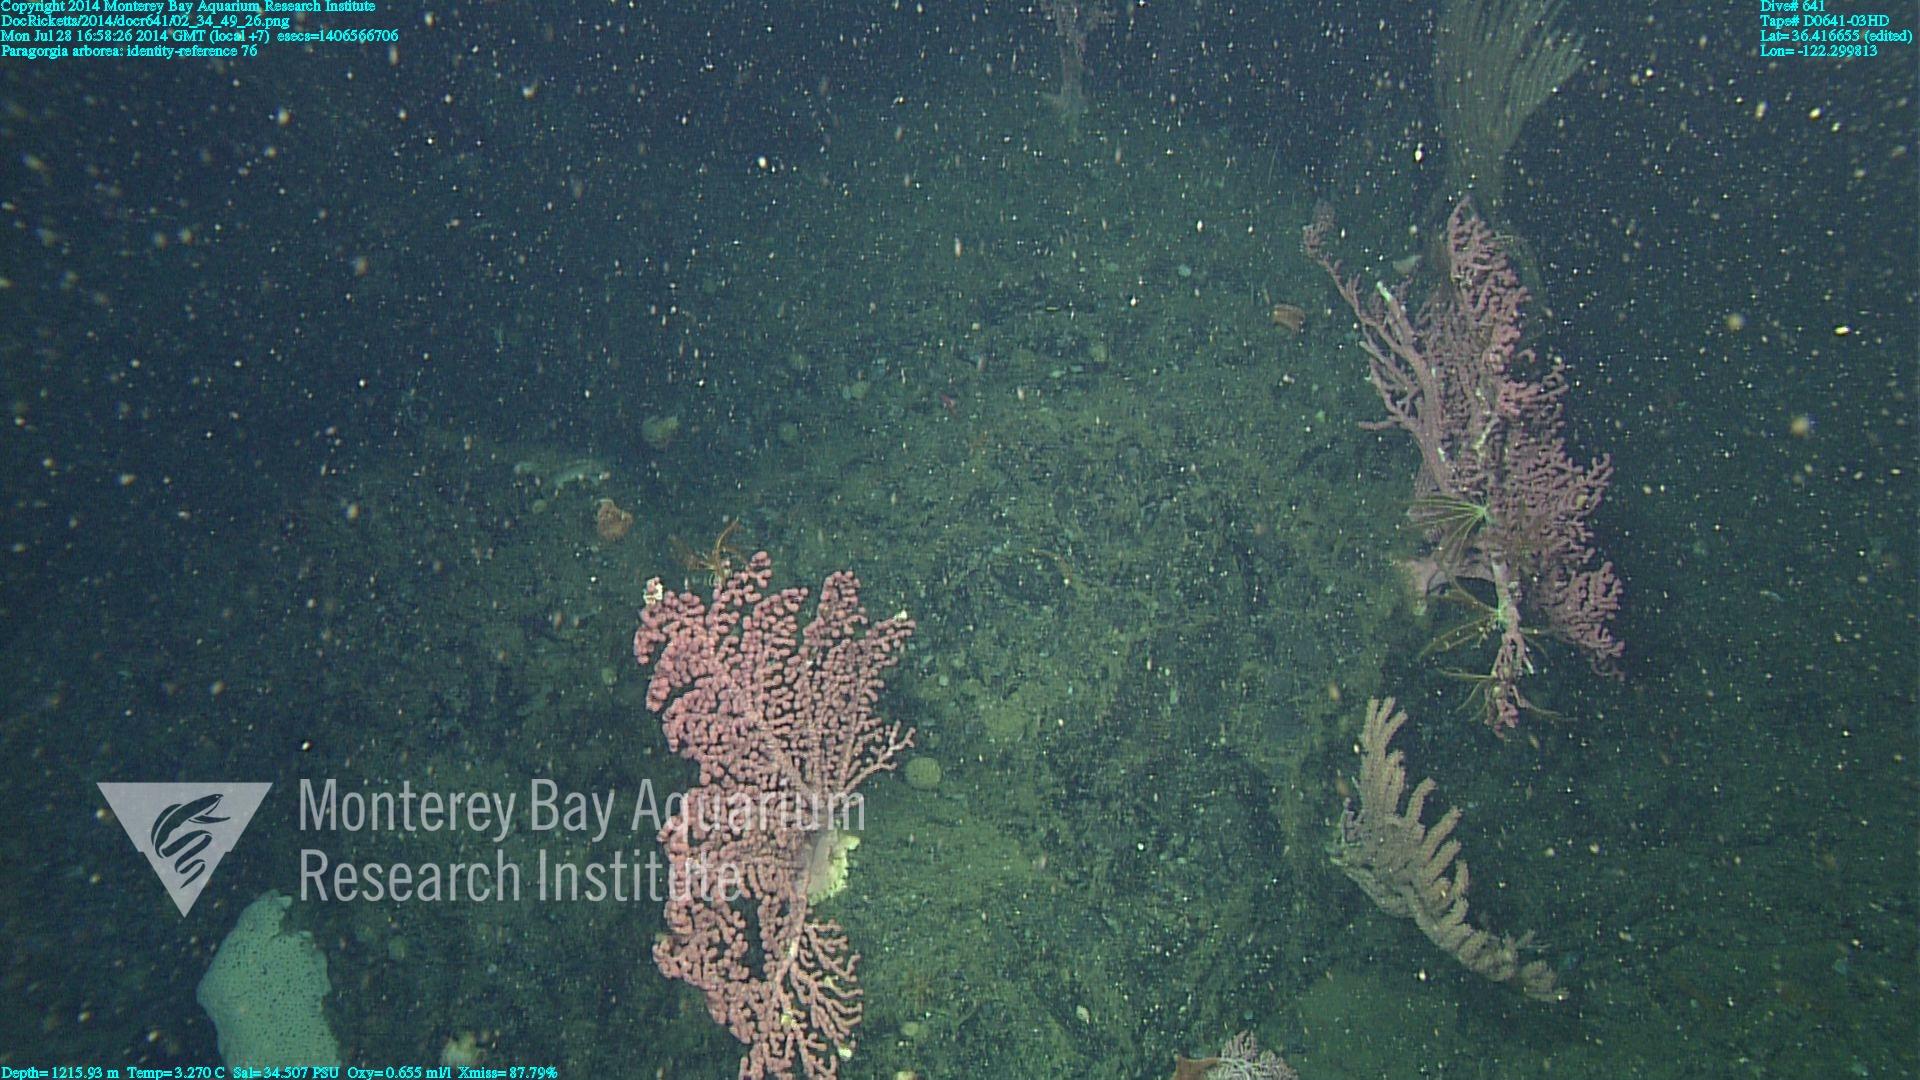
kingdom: Animalia
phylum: Cnidaria
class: Anthozoa
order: Scleralcyonacea
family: Coralliidae
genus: Paragorgia
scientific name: Paragorgia arborea
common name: Bubble gum coral
